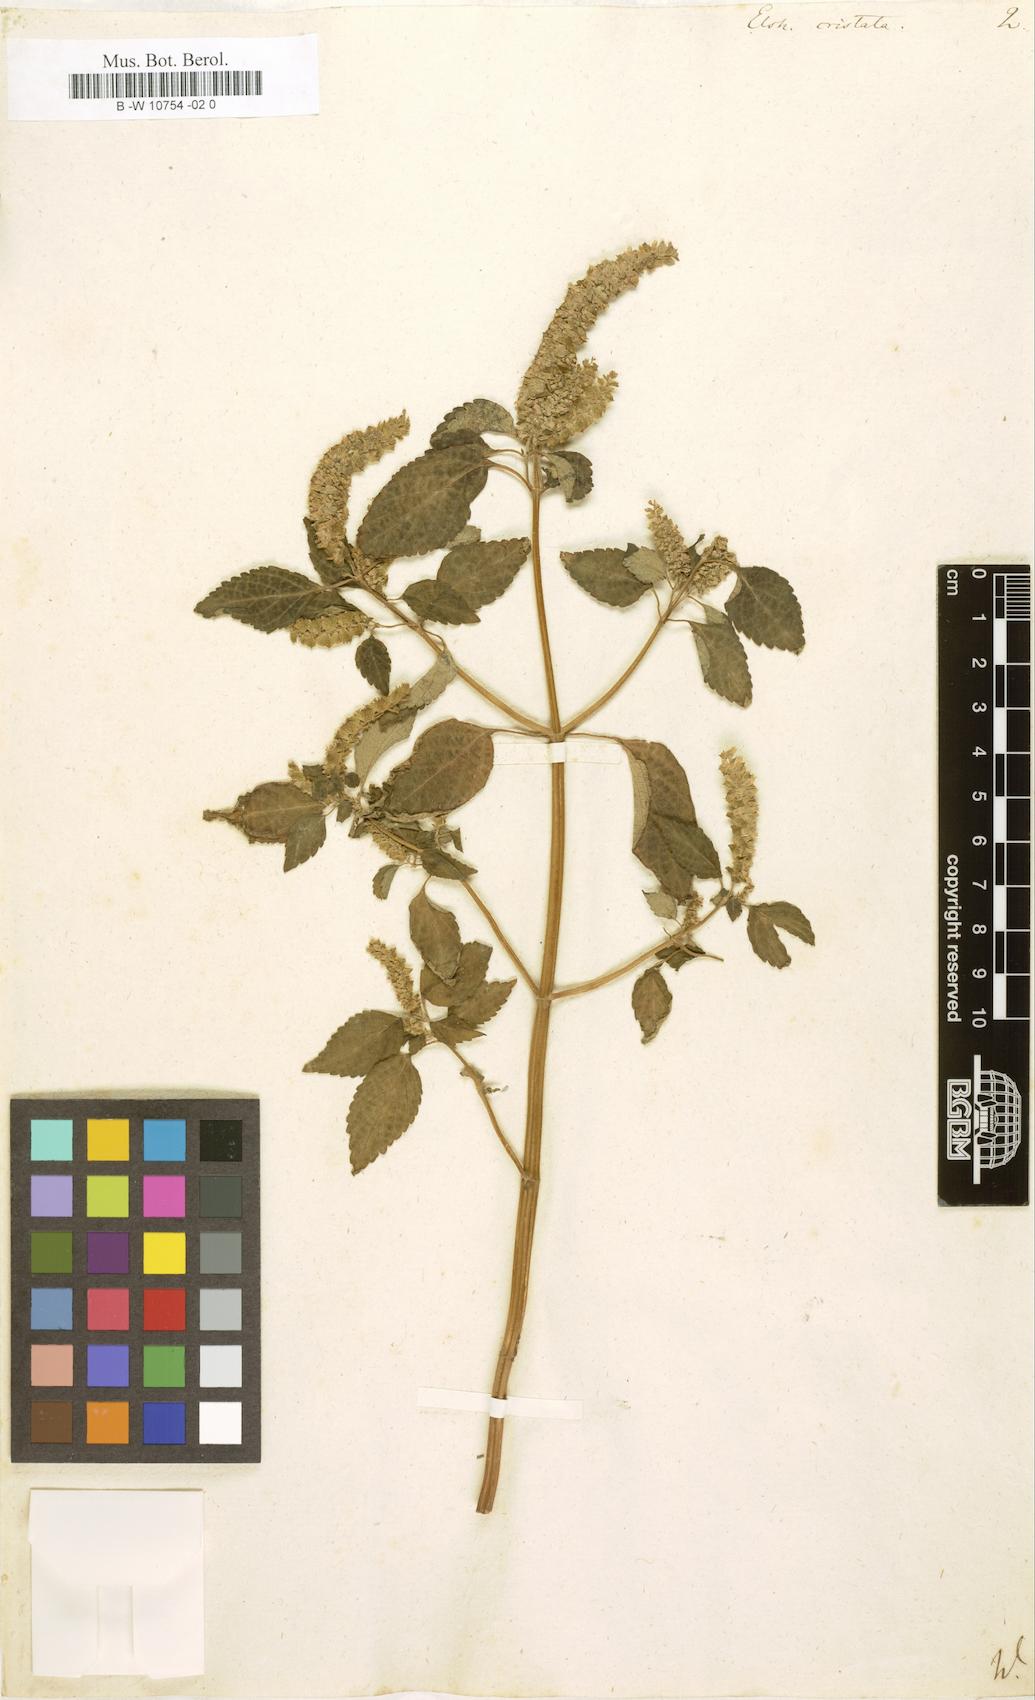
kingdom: Plantae
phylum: Tracheophyta
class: Magnoliopsida
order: Lamiales
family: Lamiaceae
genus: Elsholtzia
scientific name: Elsholtzia ciliata
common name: Ciliate elsholtzia
